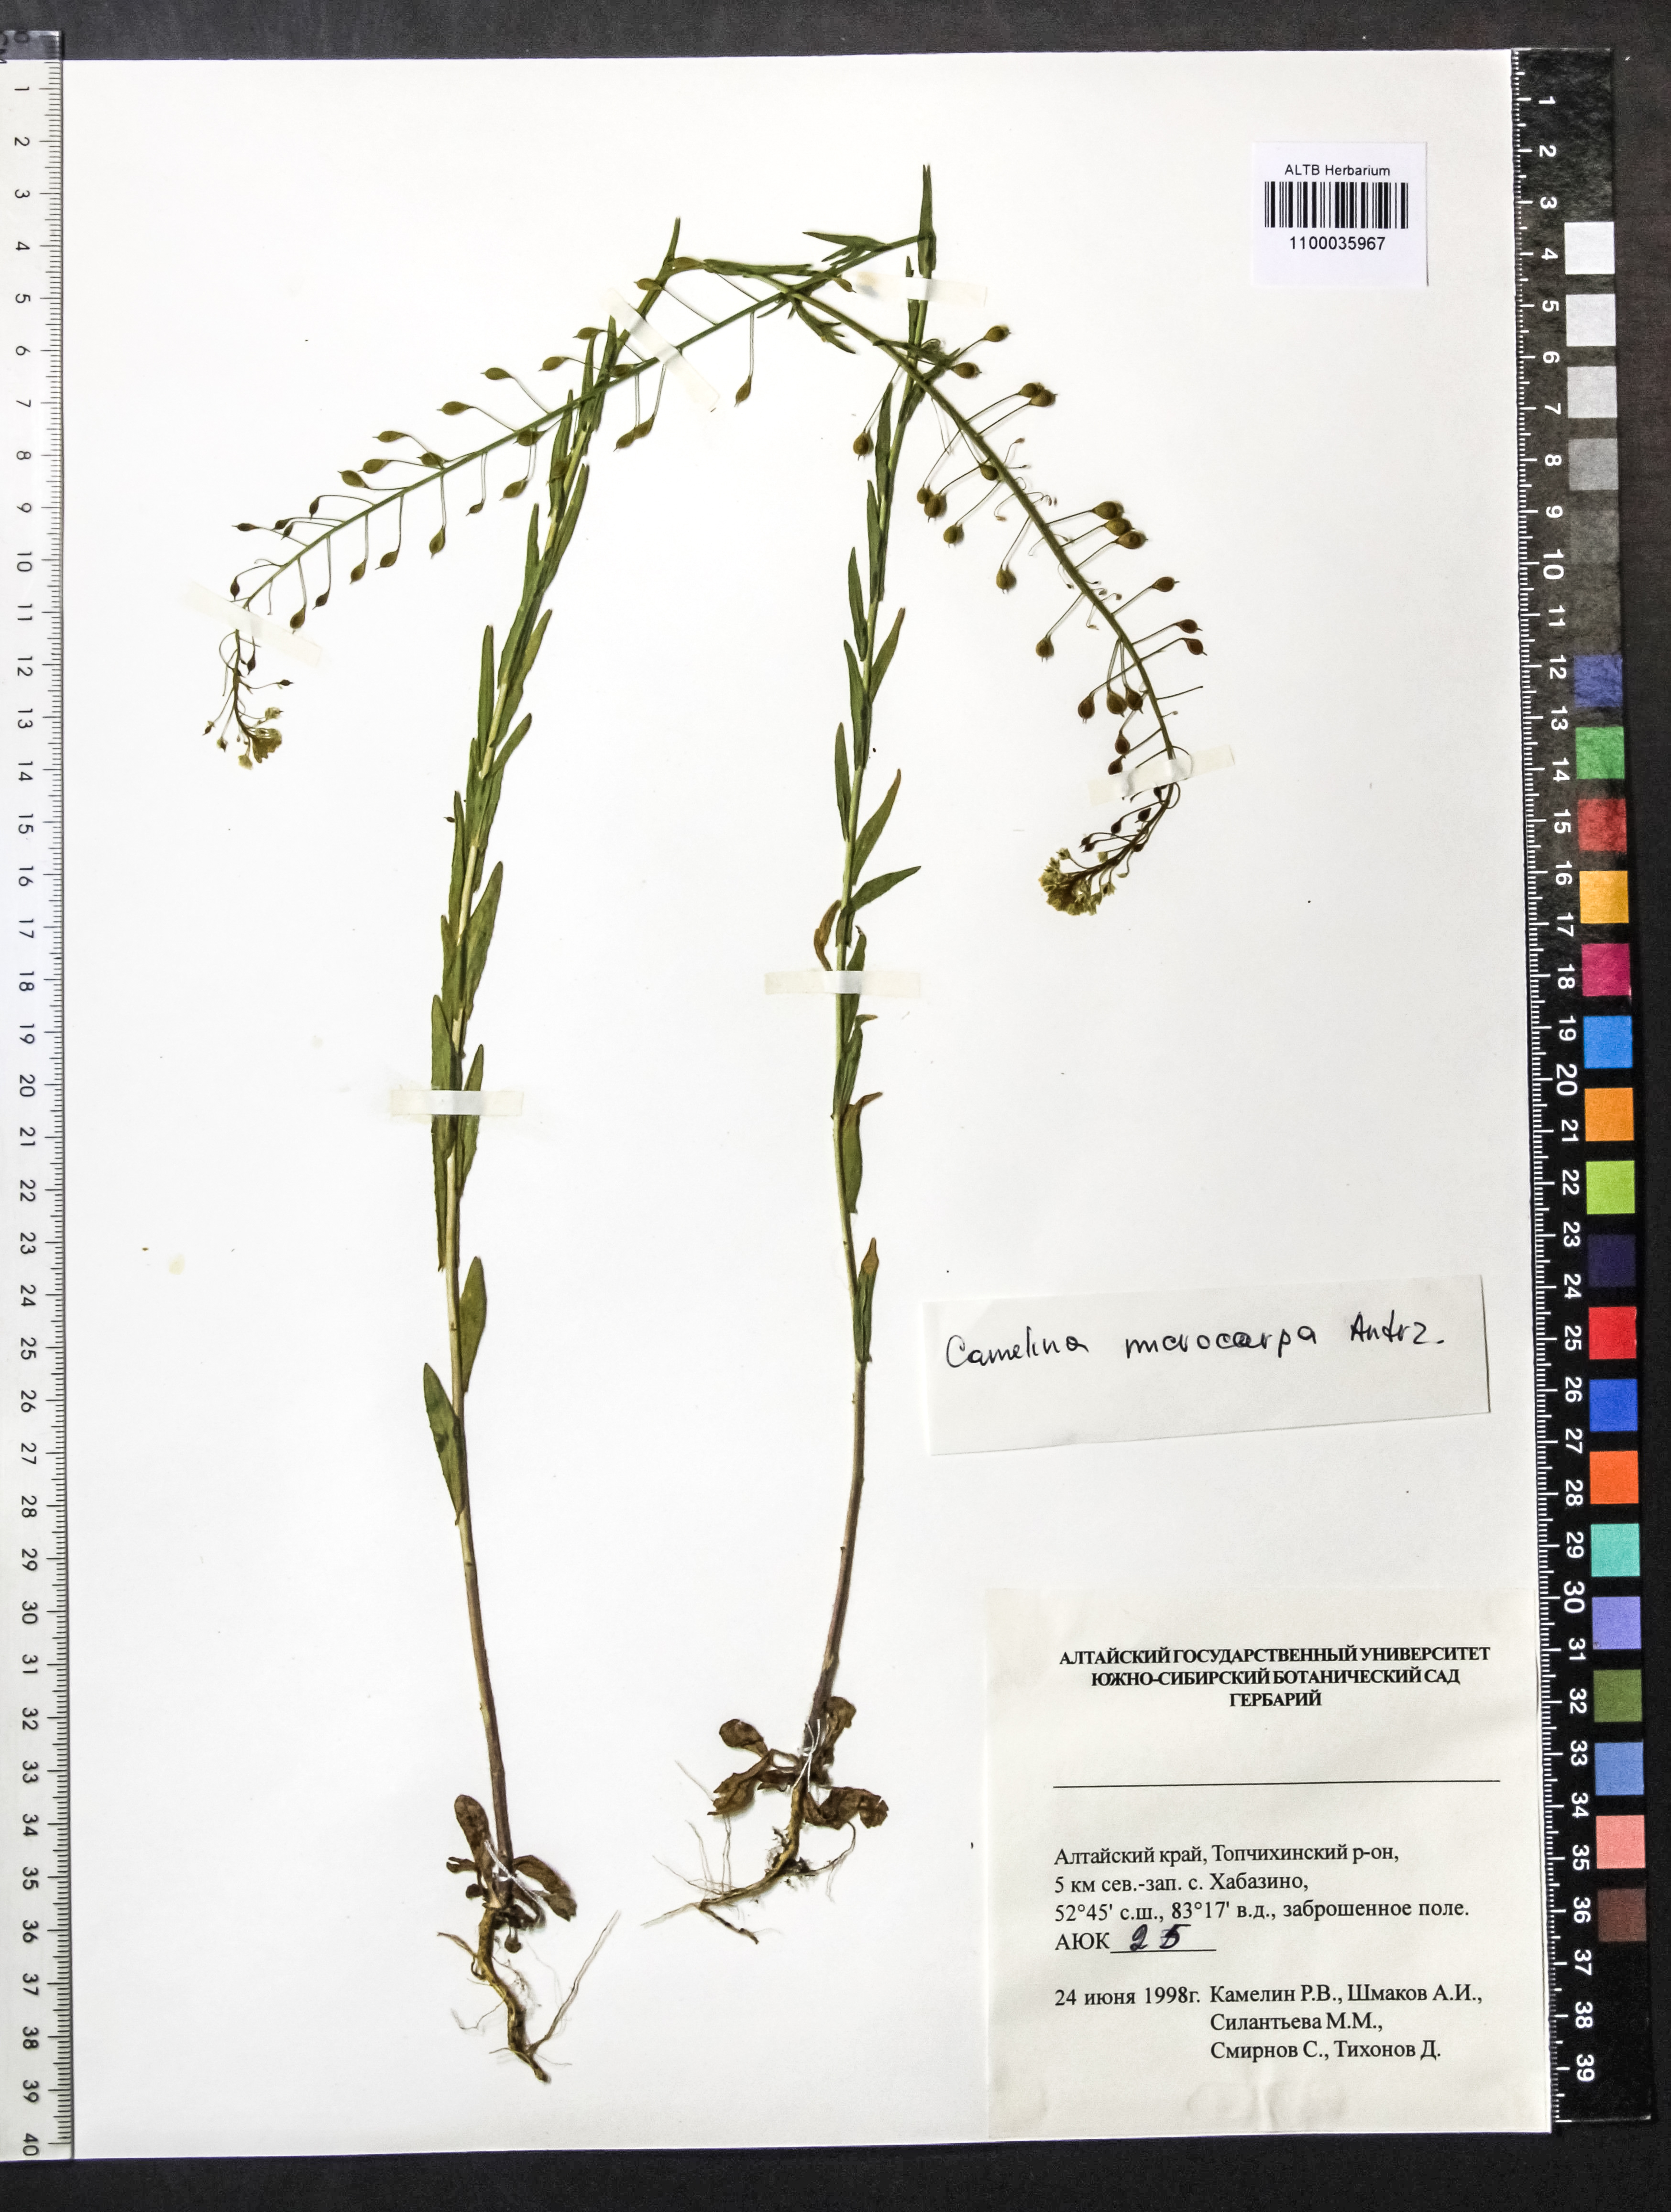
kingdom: Plantae
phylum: Tracheophyta
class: Magnoliopsida
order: Brassicales
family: Brassicaceae
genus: Camelina
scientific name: Camelina microcarpa
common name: Lesser gold-of-pleasure
